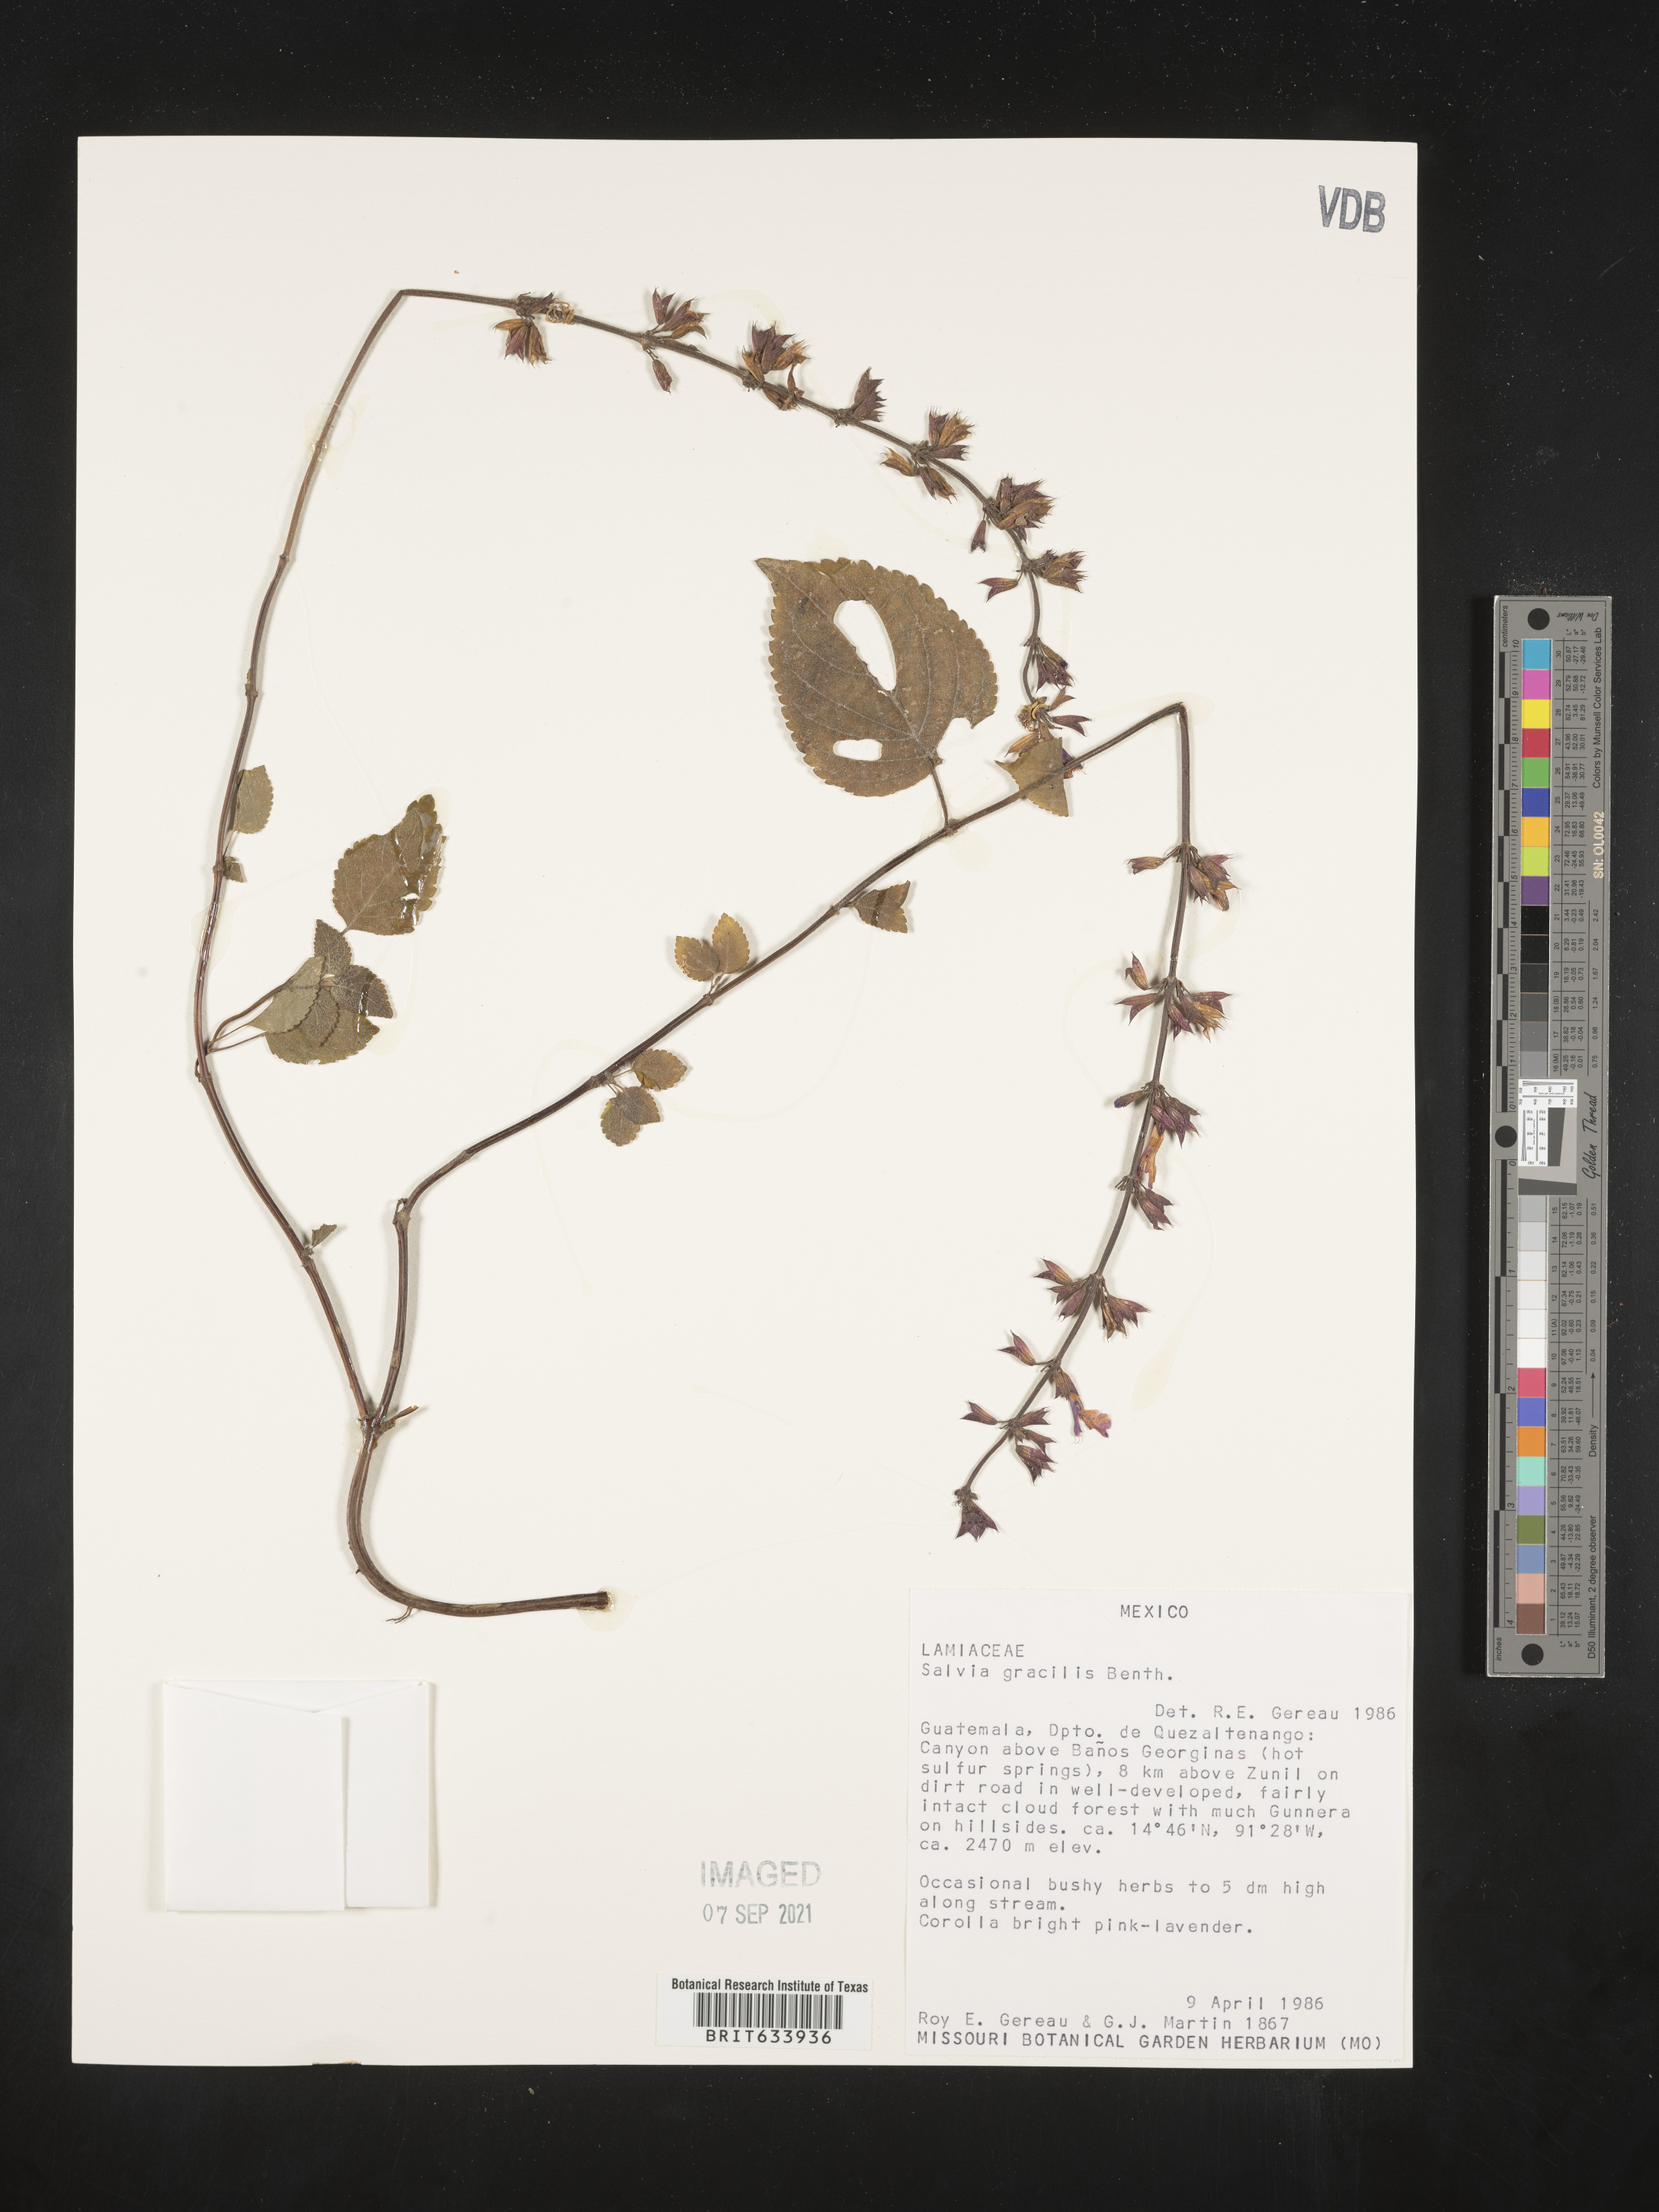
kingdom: Plantae
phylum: Tracheophyta
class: Magnoliopsida
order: Lamiales
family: Lamiaceae
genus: Salvia
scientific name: Salvia
